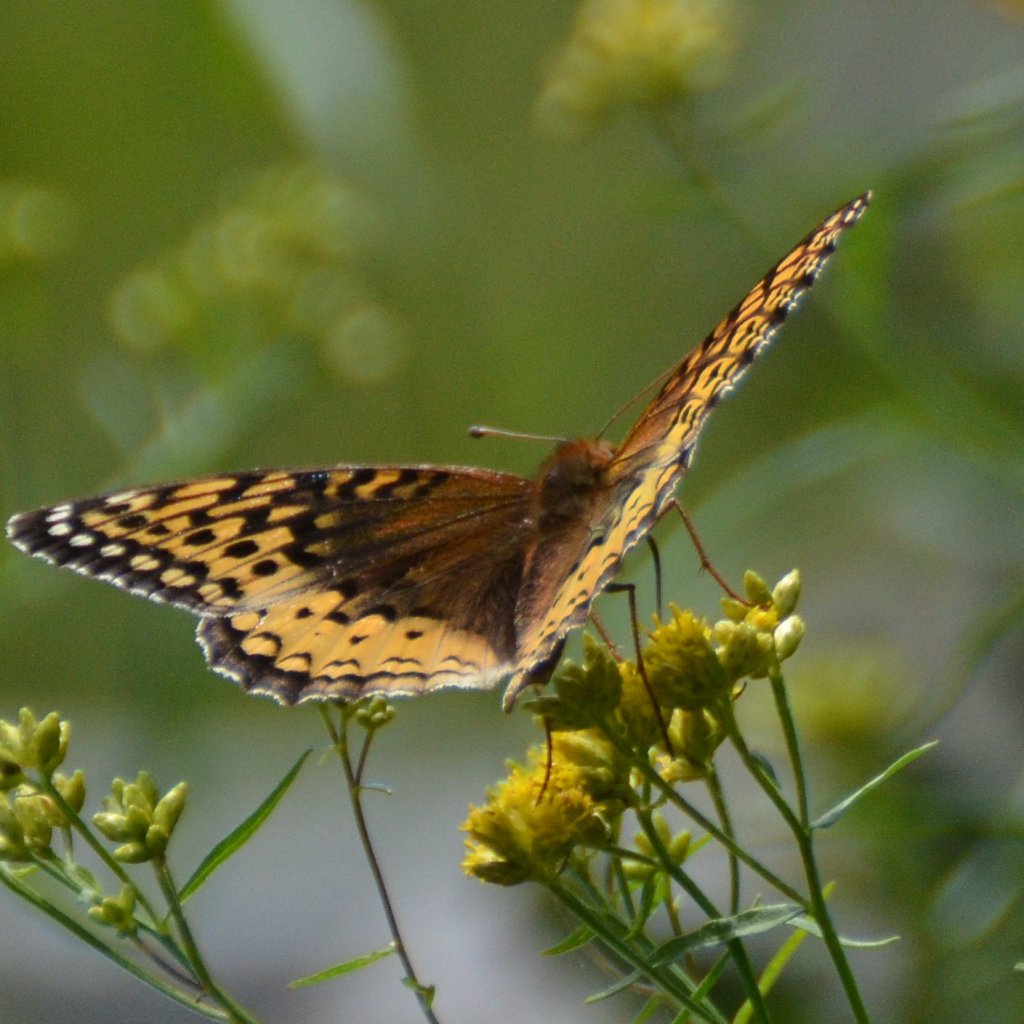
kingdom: Animalia
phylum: Arthropoda
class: Insecta
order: Lepidoptera
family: Nymphalidae
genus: Speyeria
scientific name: Speyeria cybele
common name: Great Spangled Fritillary
